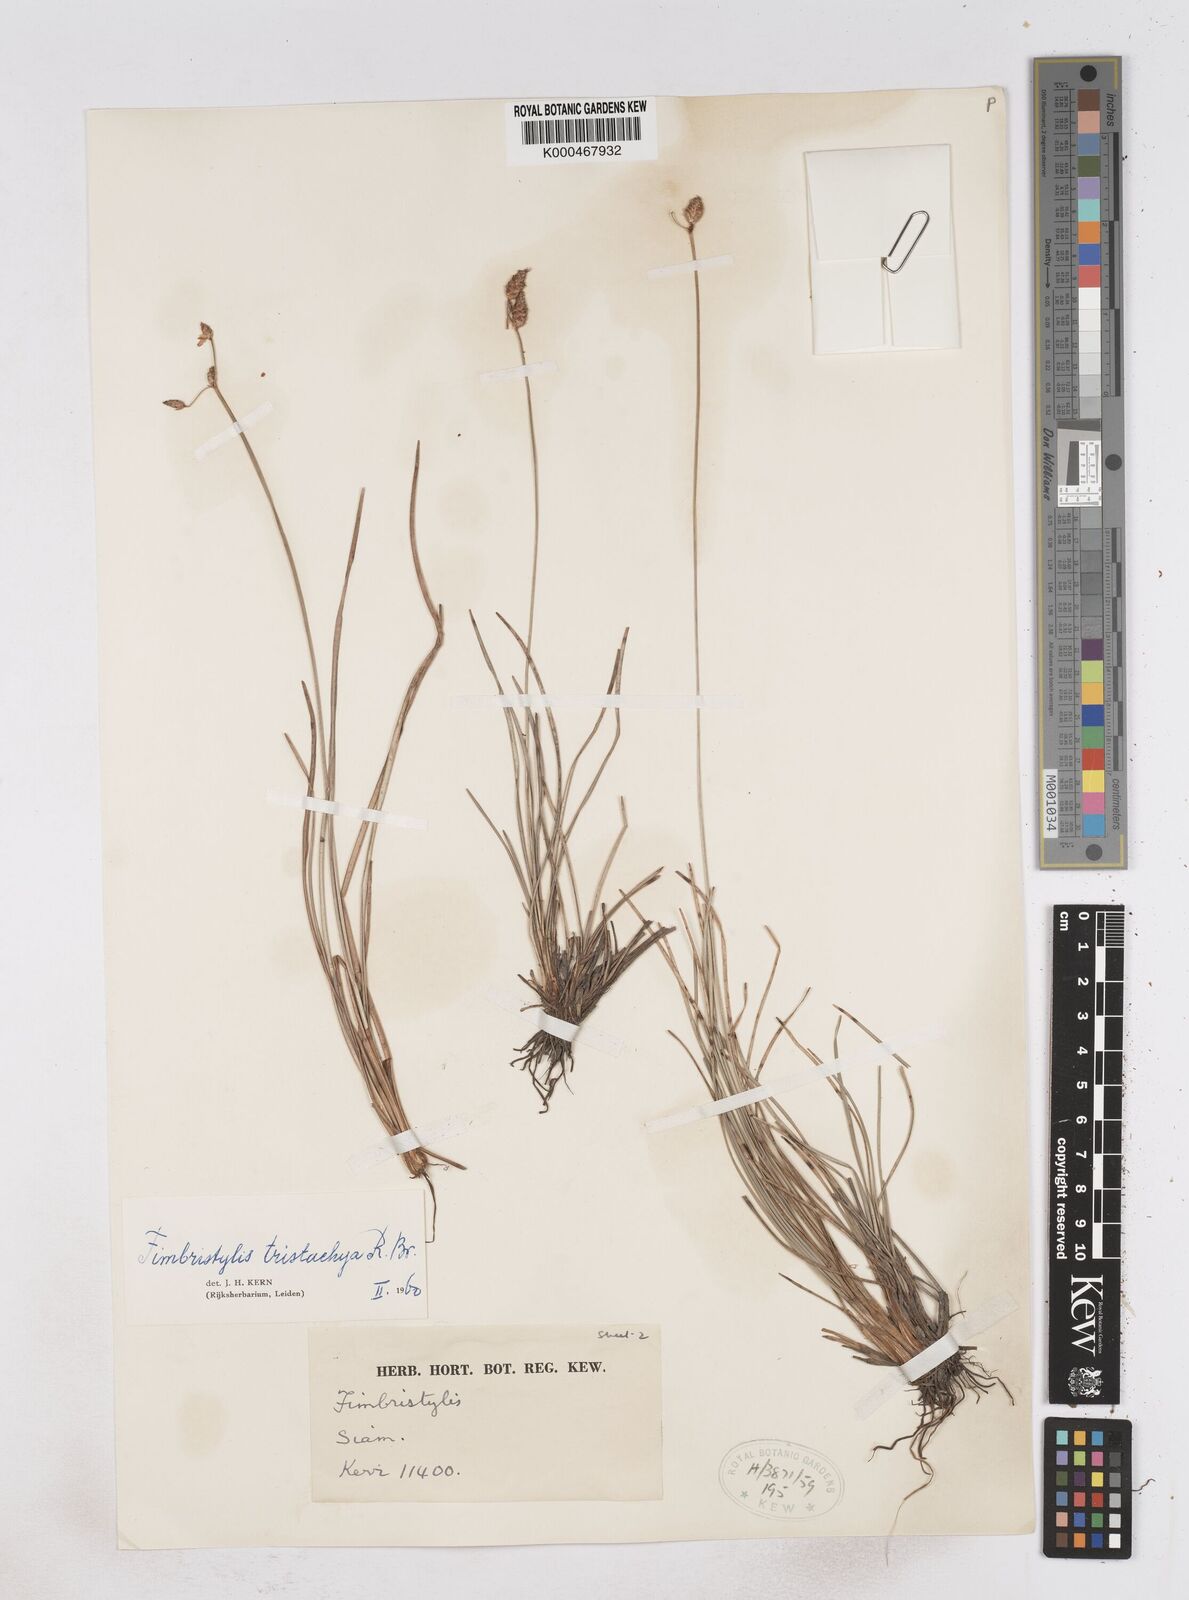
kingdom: Plantae
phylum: Tracheophyta
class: Liliopsida
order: Poales
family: Cyperaceae
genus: Fimbristylis
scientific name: Fimbristylis tristachya
